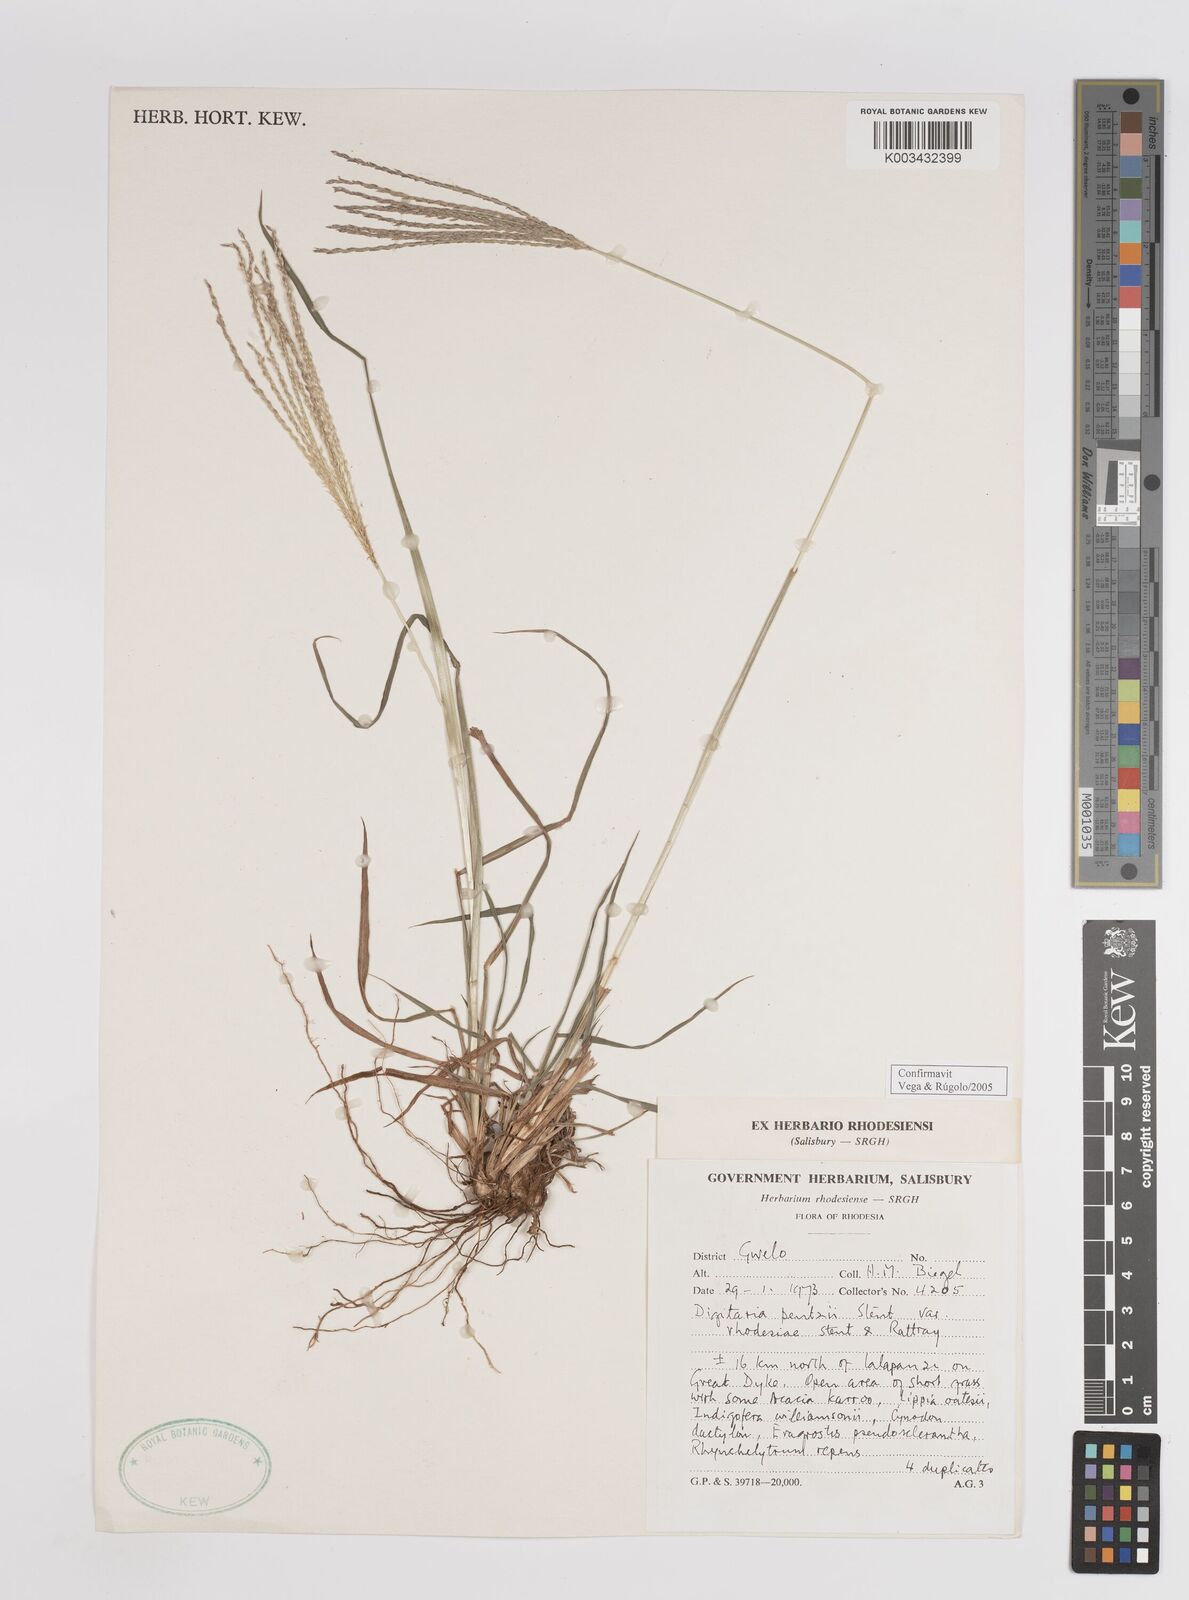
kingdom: Plantae
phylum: Tracheophyta
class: Liliopsida
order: Poales
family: Poaceae
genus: Digitaria
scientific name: Digitaria eriantha
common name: Digitgrass
